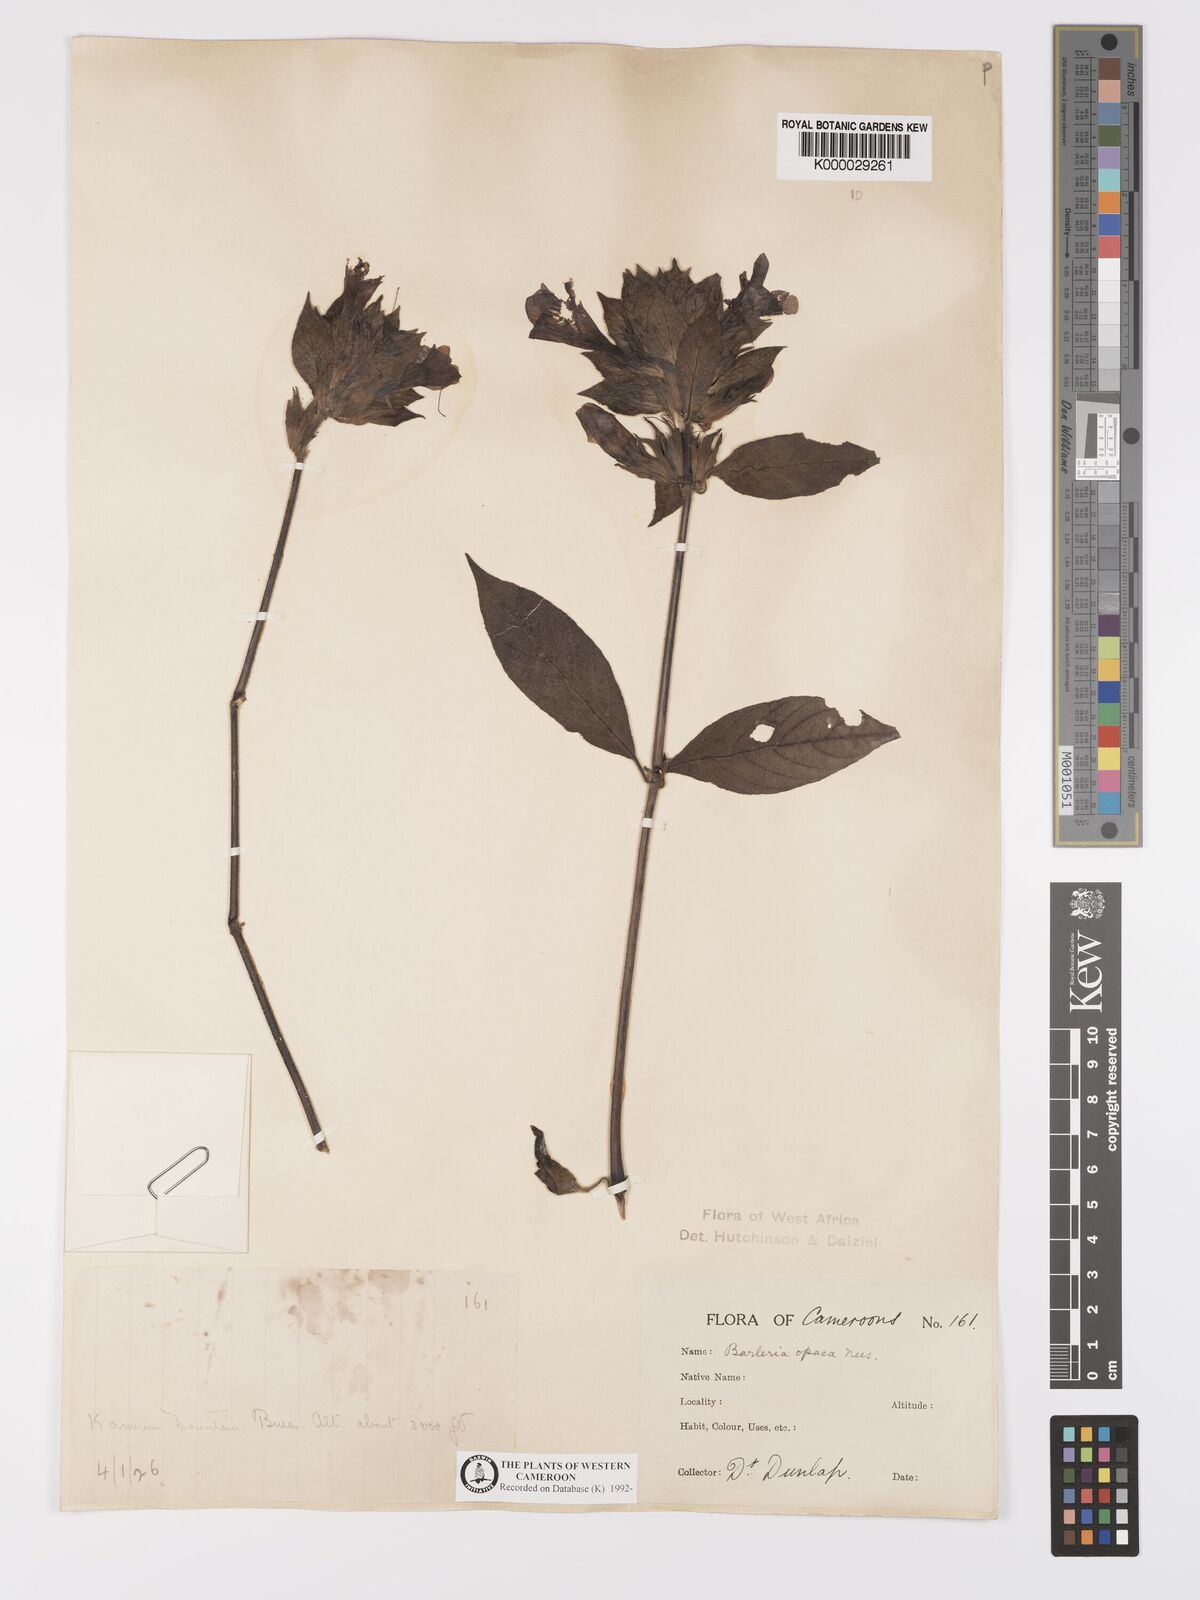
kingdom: Plantae
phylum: Tracheophyta
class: Magnoliopsida
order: Lamiales
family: Acanthaceae
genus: Barleria
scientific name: Barleria opaca
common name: Kwahu
